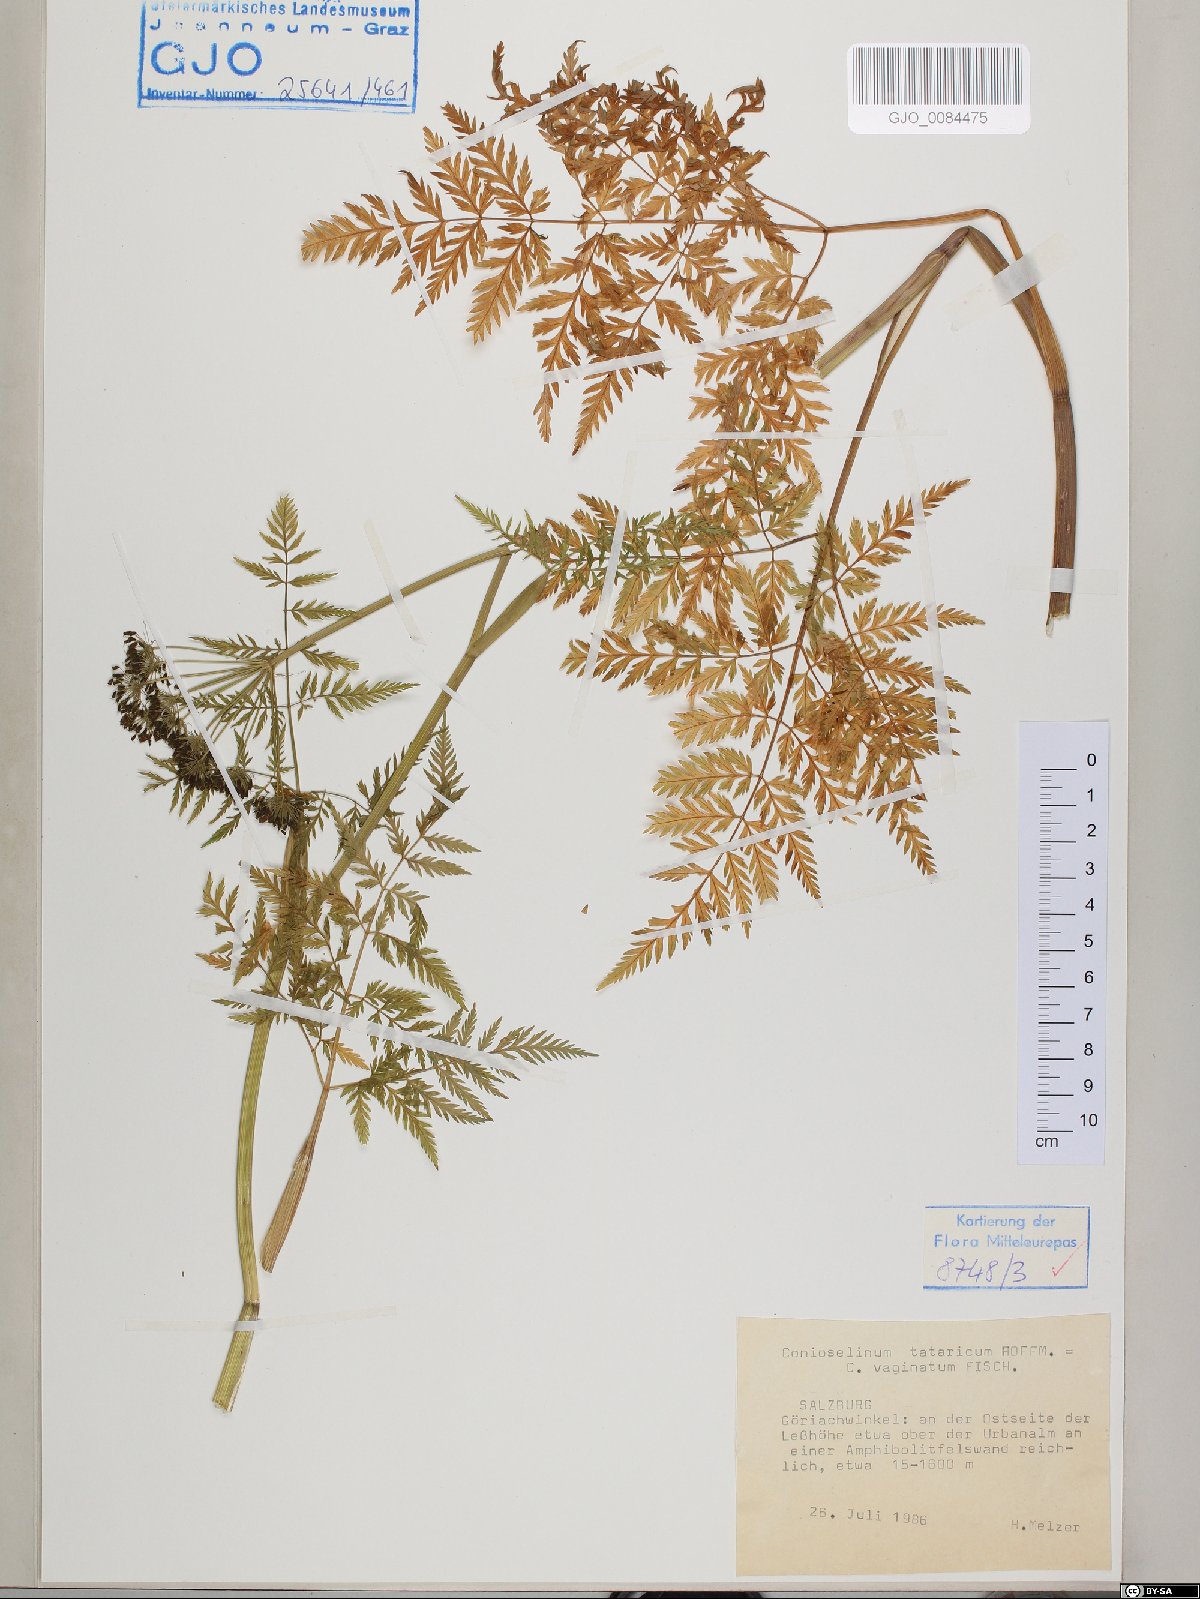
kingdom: Plantae
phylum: Tracheophyta
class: Magnoliopsida
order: Apiales
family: Apiaceae
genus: Conioselinum
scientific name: Conioselinum tataricum
